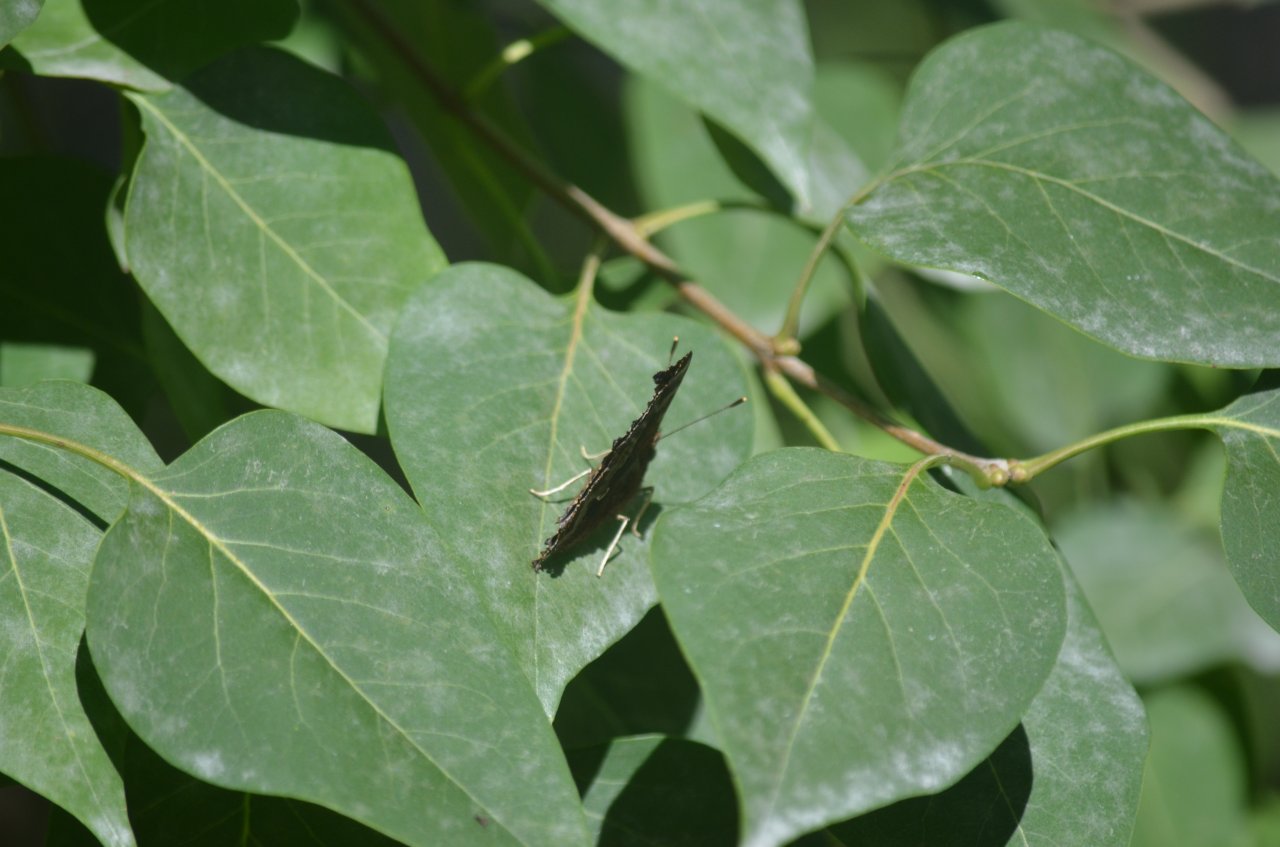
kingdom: Animalia
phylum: Arthropoda
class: Insecta
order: Lepidoptera
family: Nymphalidae
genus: Polygonia
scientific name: Polygonia comma
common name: Eastern Comma
